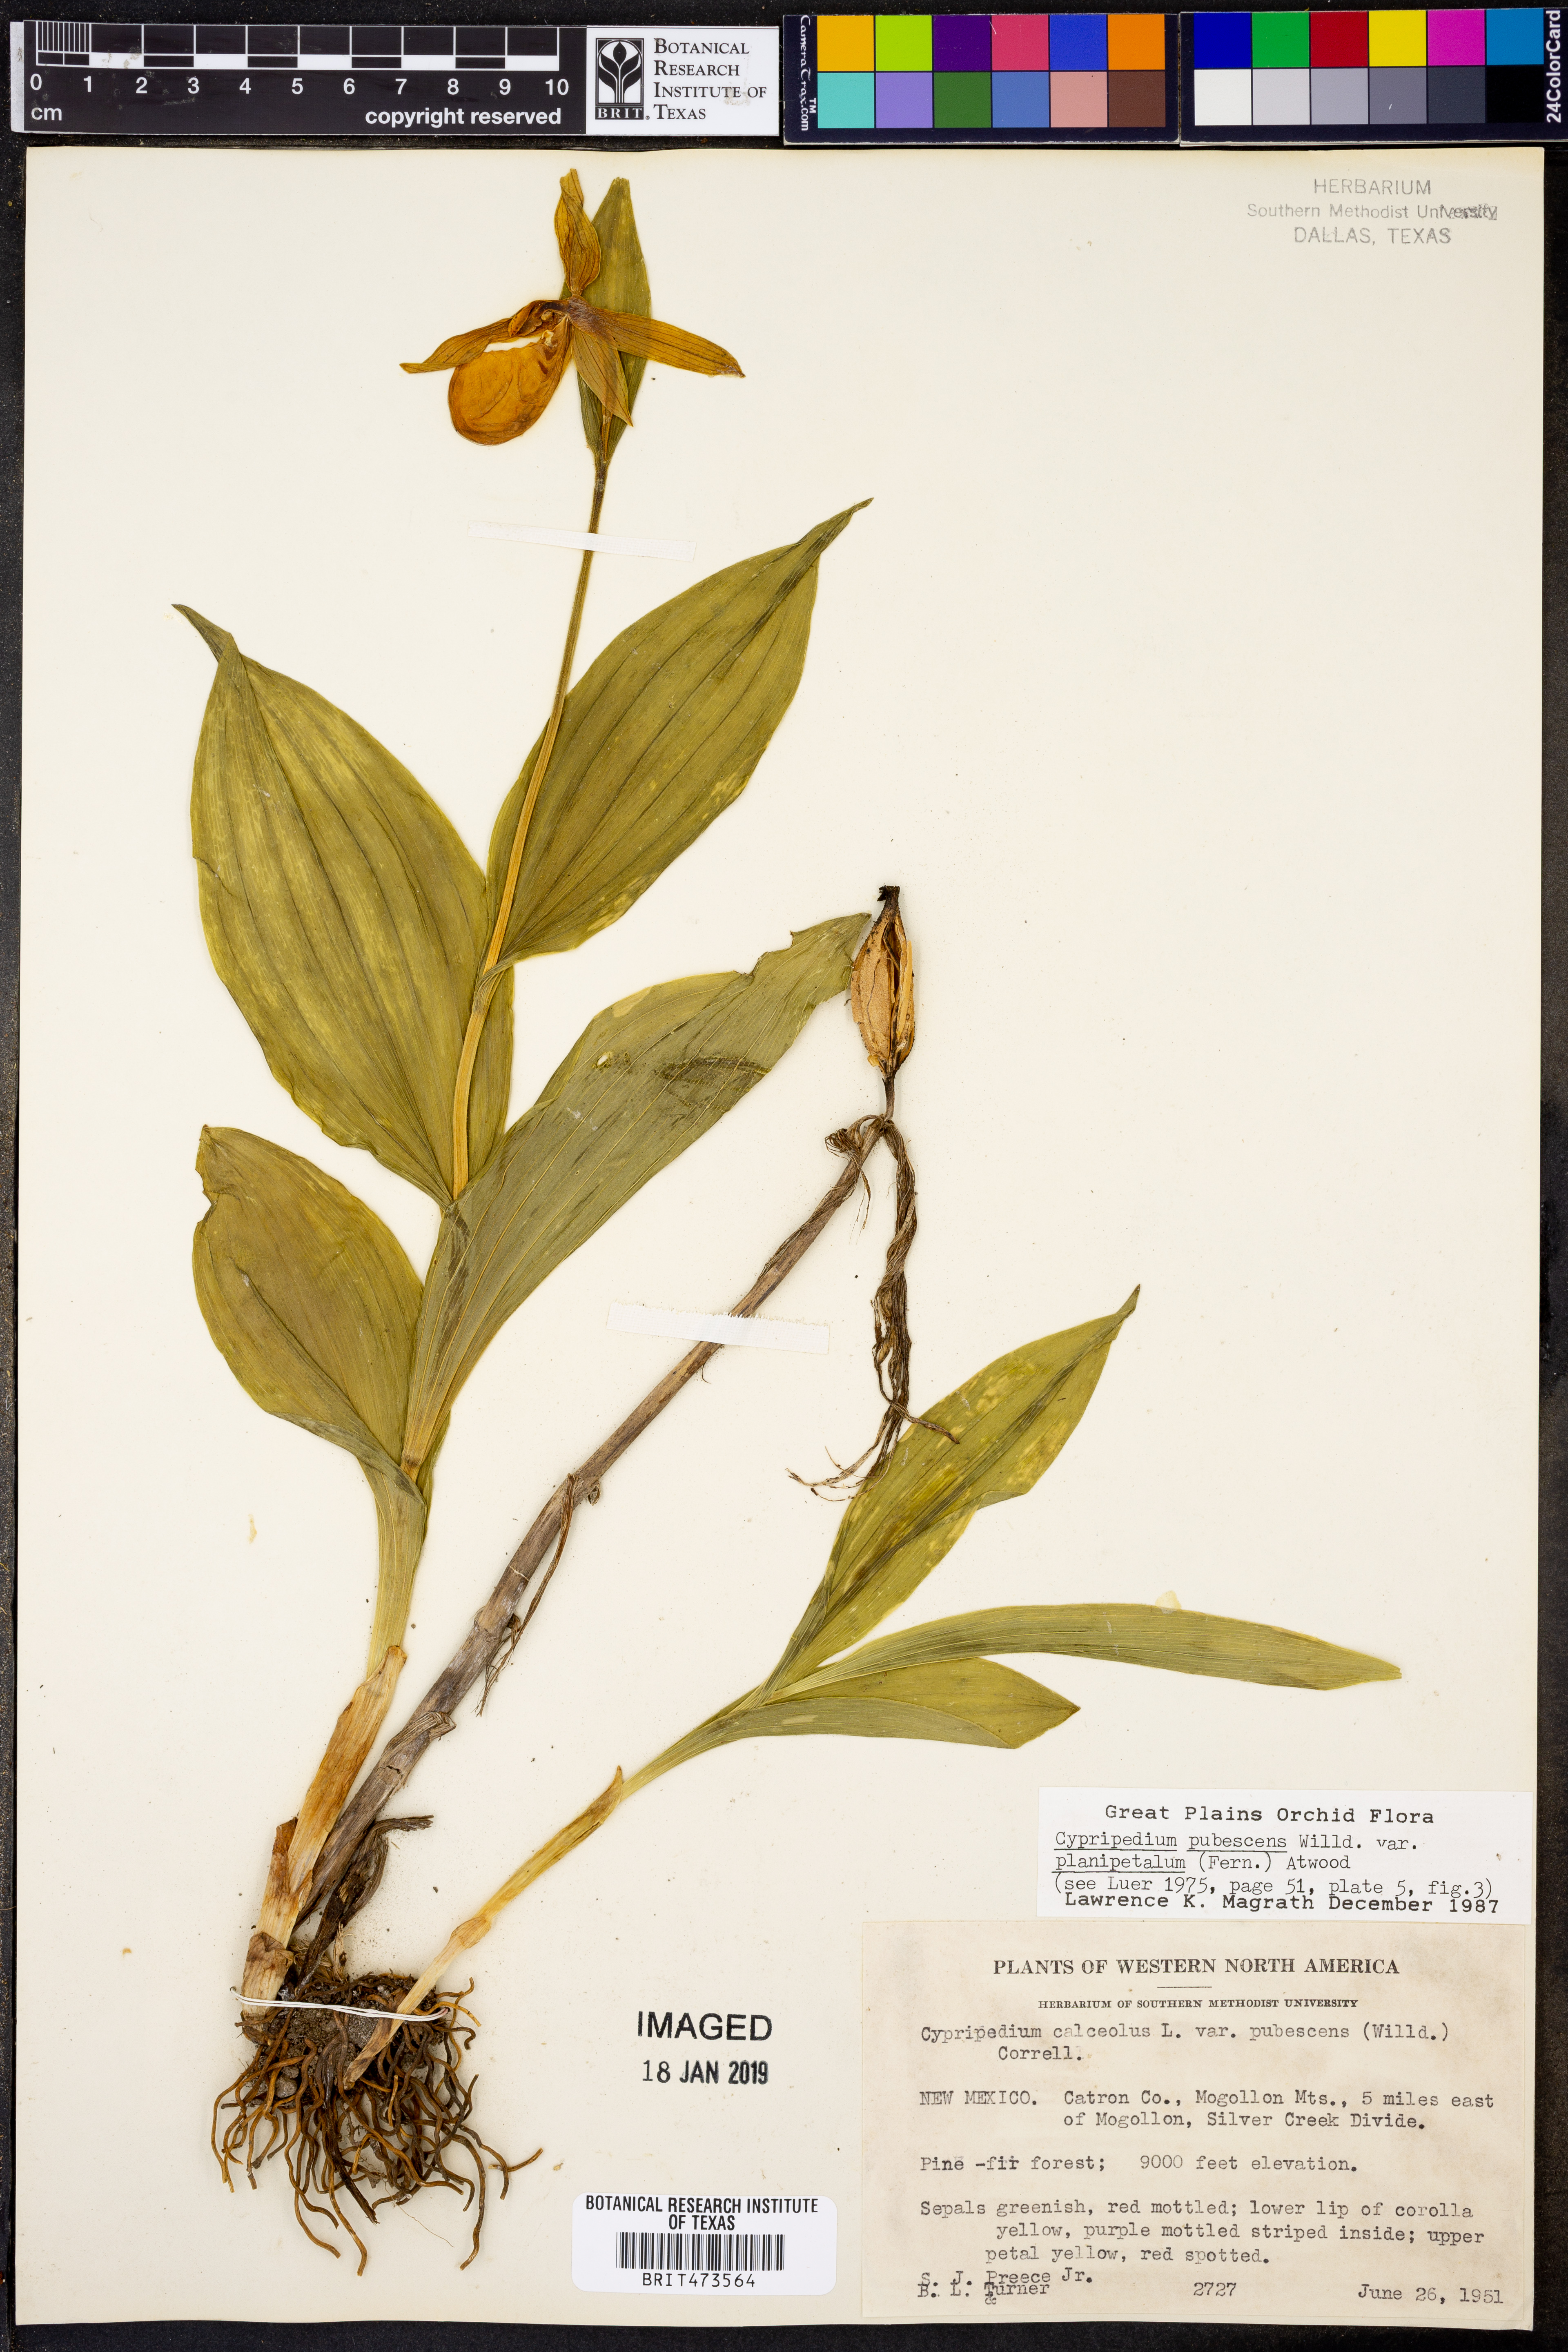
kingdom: Plantae
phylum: Tracheophyta
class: Liliopsida
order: Asparagales
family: Orchidaceae
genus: Cypripedium
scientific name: Cypripedium parviflorum
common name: American yellow lady's-slipper
